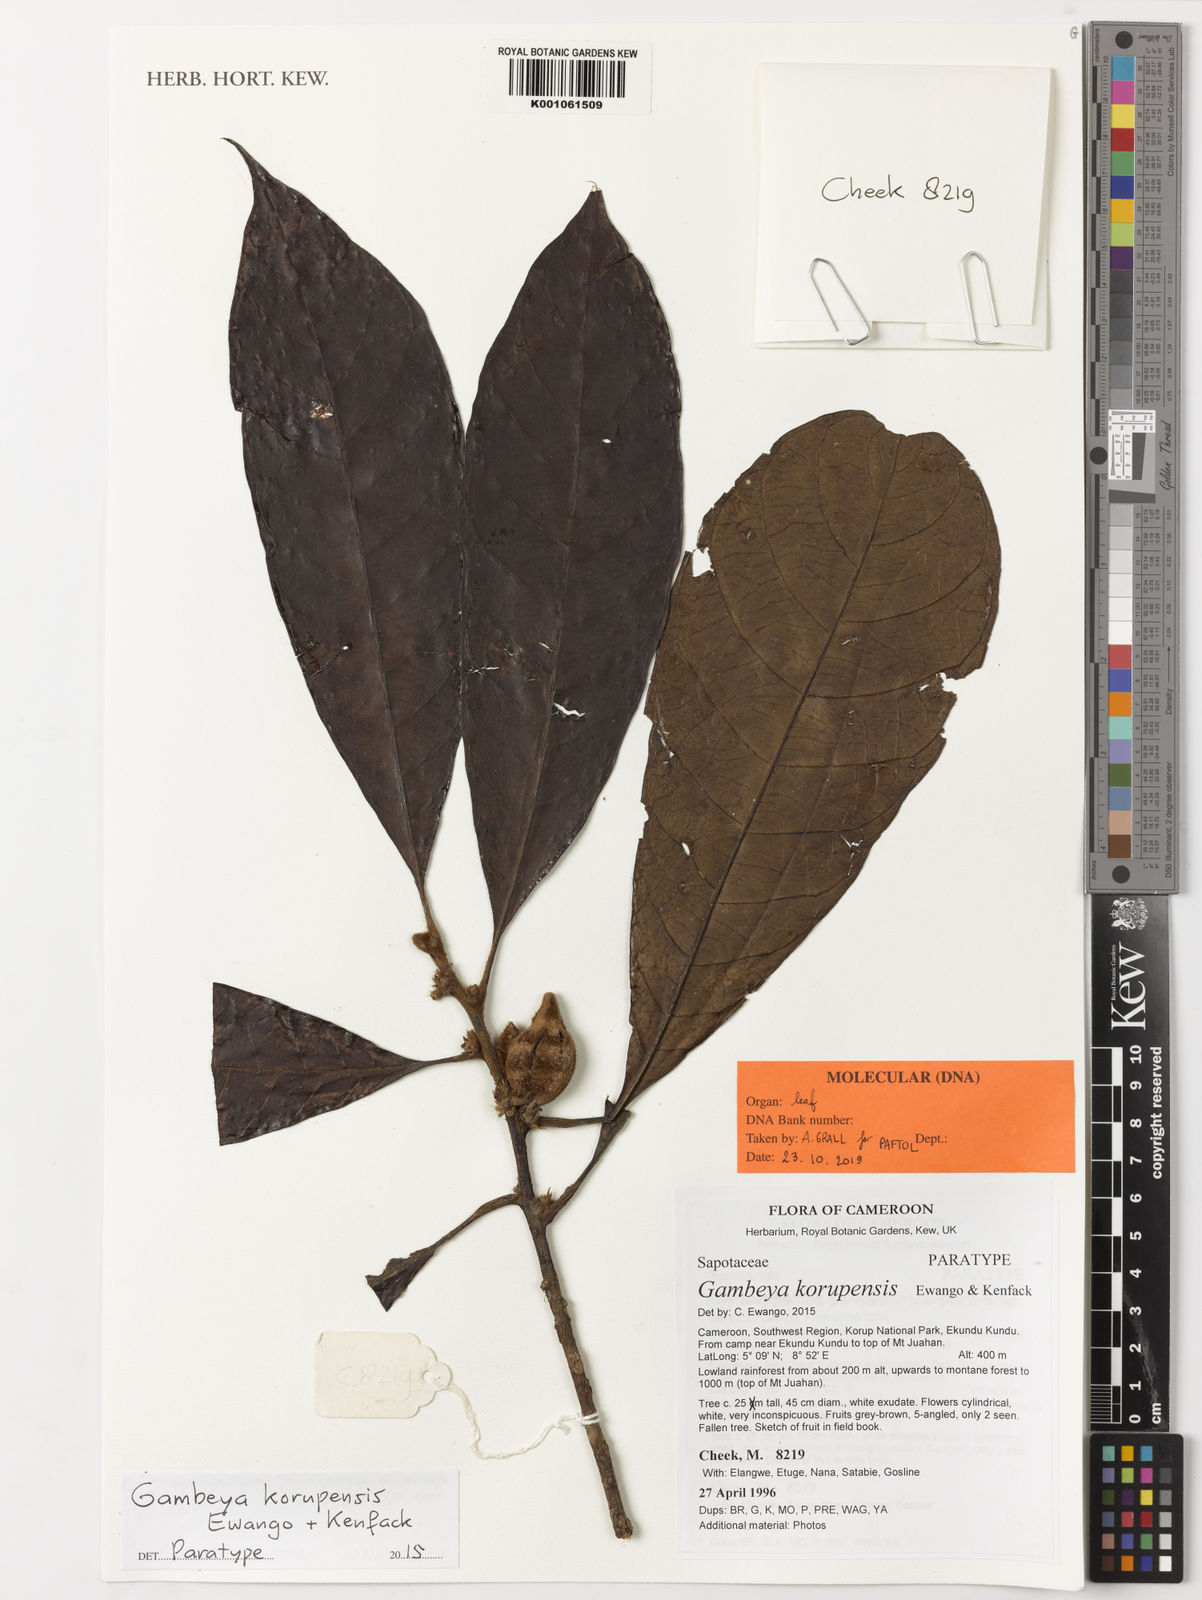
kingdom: Plantae
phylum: Tracheophyta
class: Magnoliopsida
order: Ericales
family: Sapotaceae
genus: Gambeya
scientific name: Gambeya korupensis
